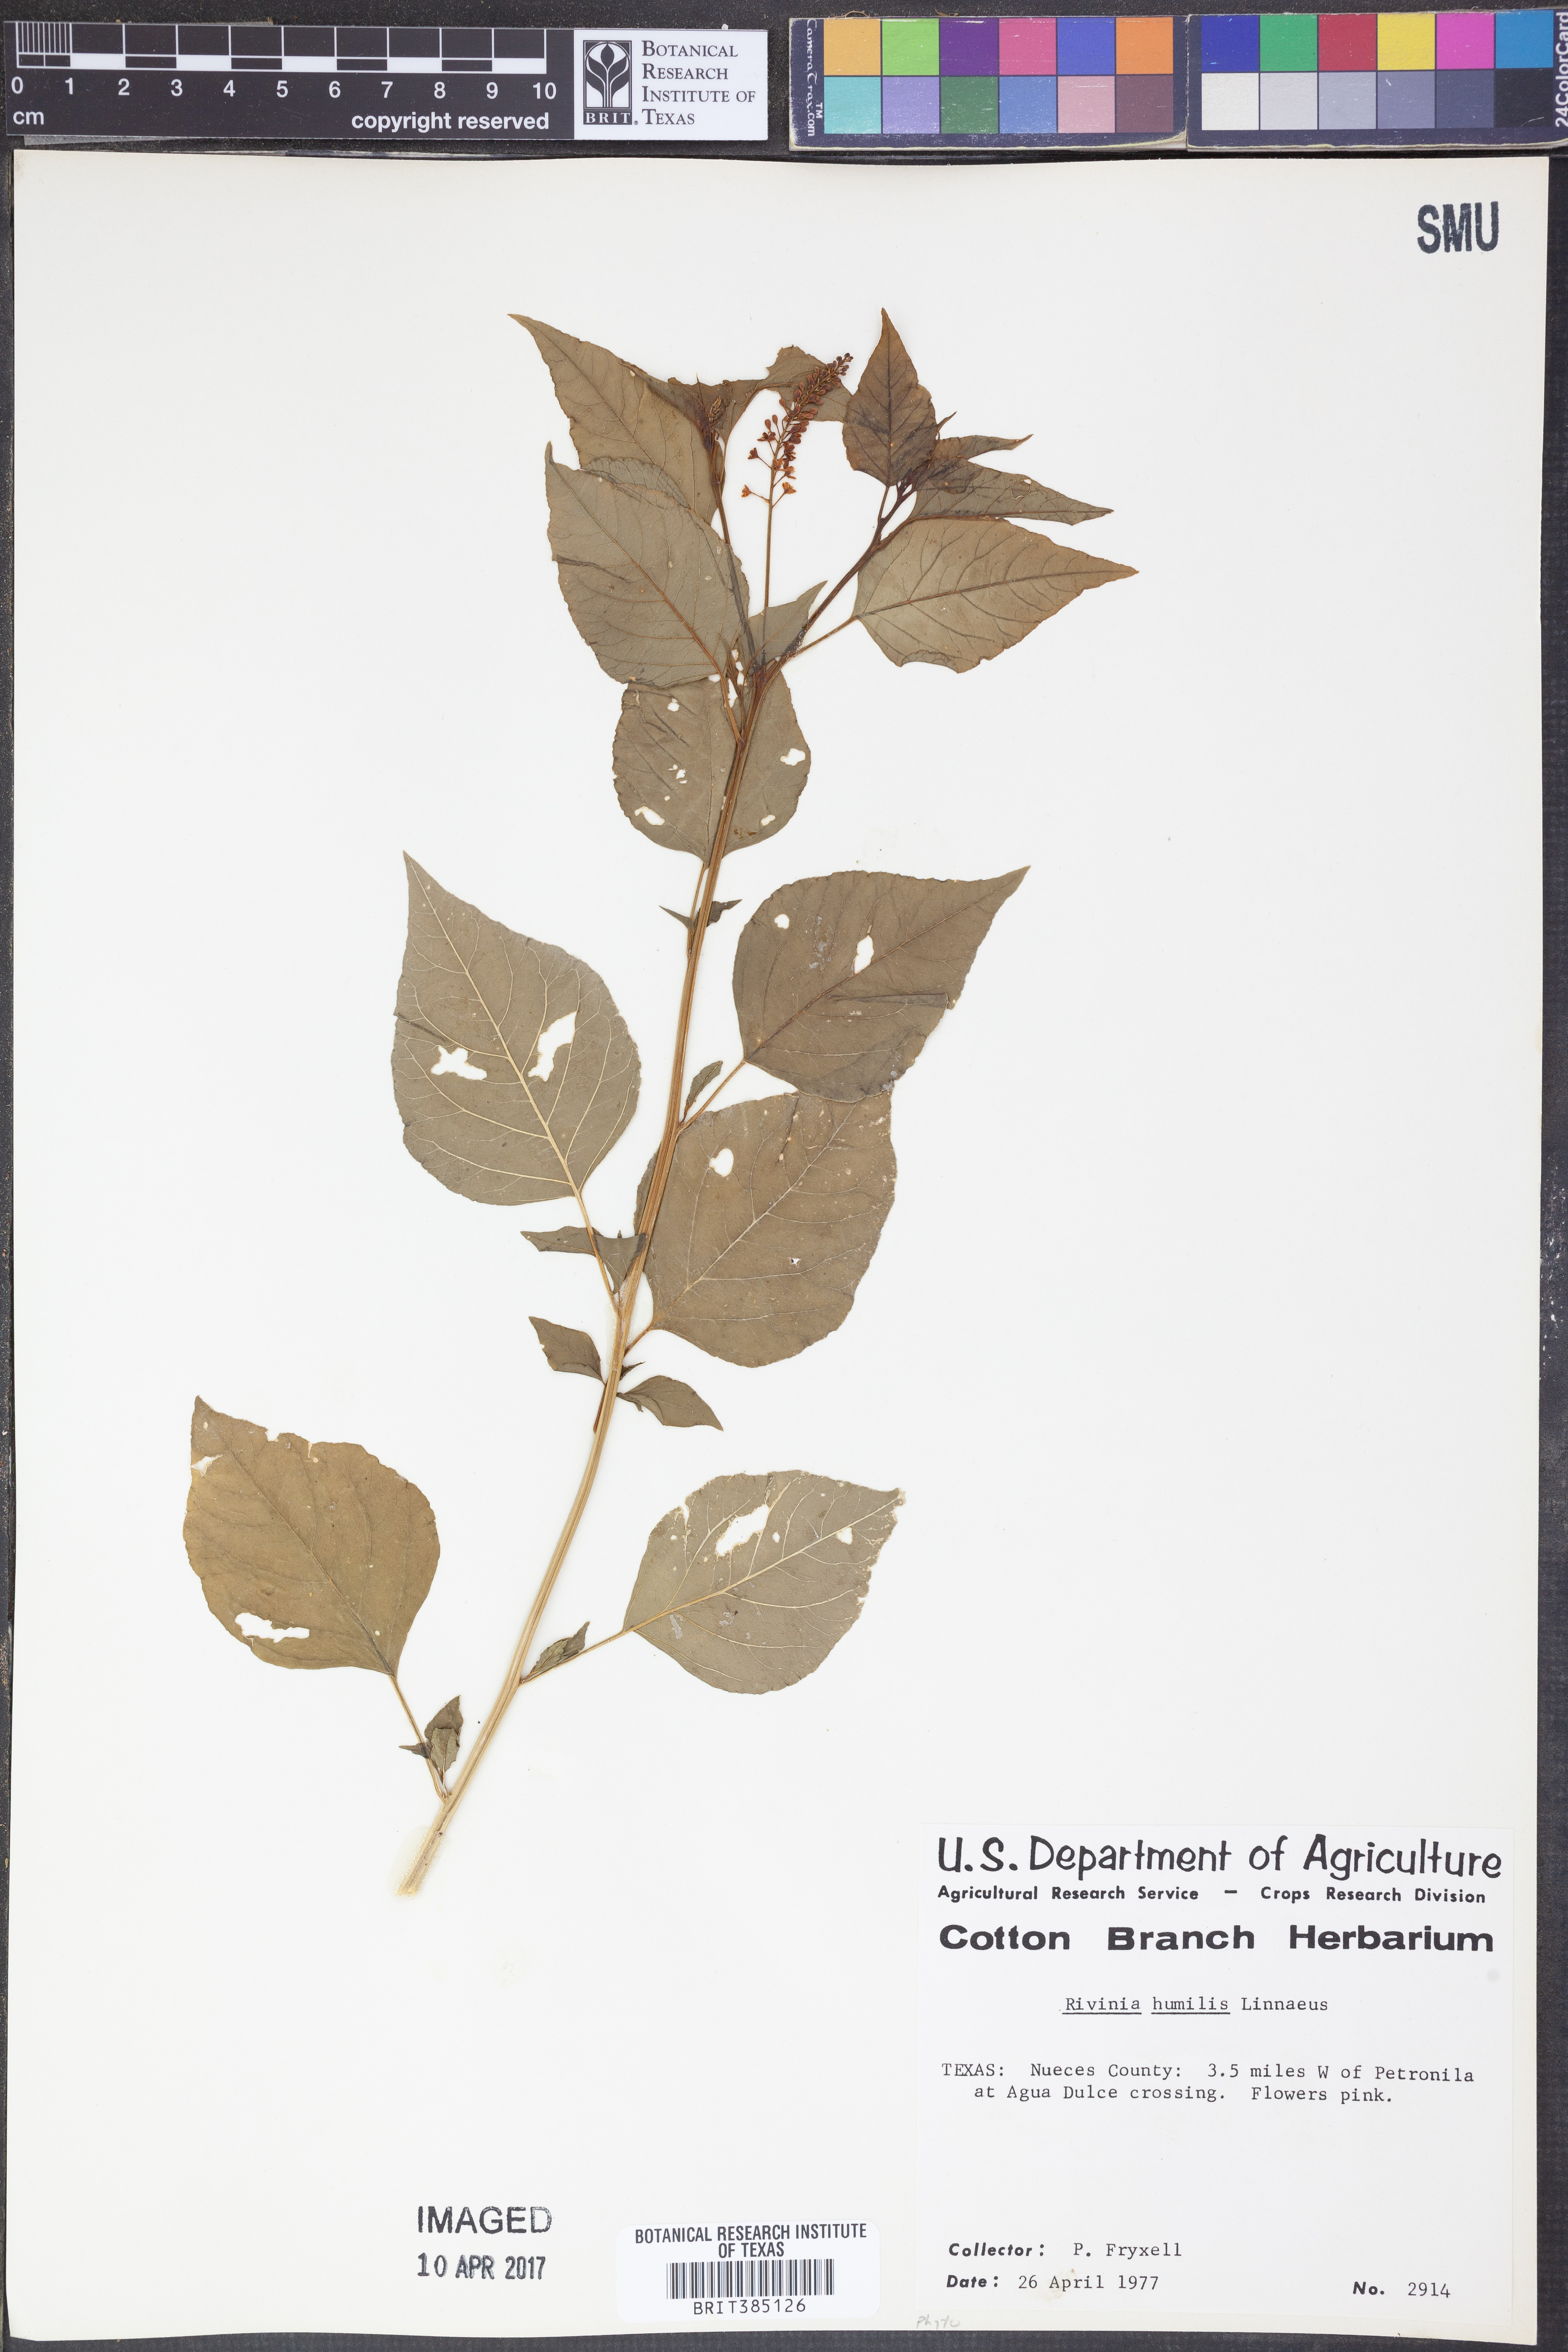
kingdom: Plantae
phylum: Tracheophyta
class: Magnoliopsida
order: Caryophyllales
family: Phytolaccaceae
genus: Rivina
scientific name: Rivina humilis
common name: Rougeplant
